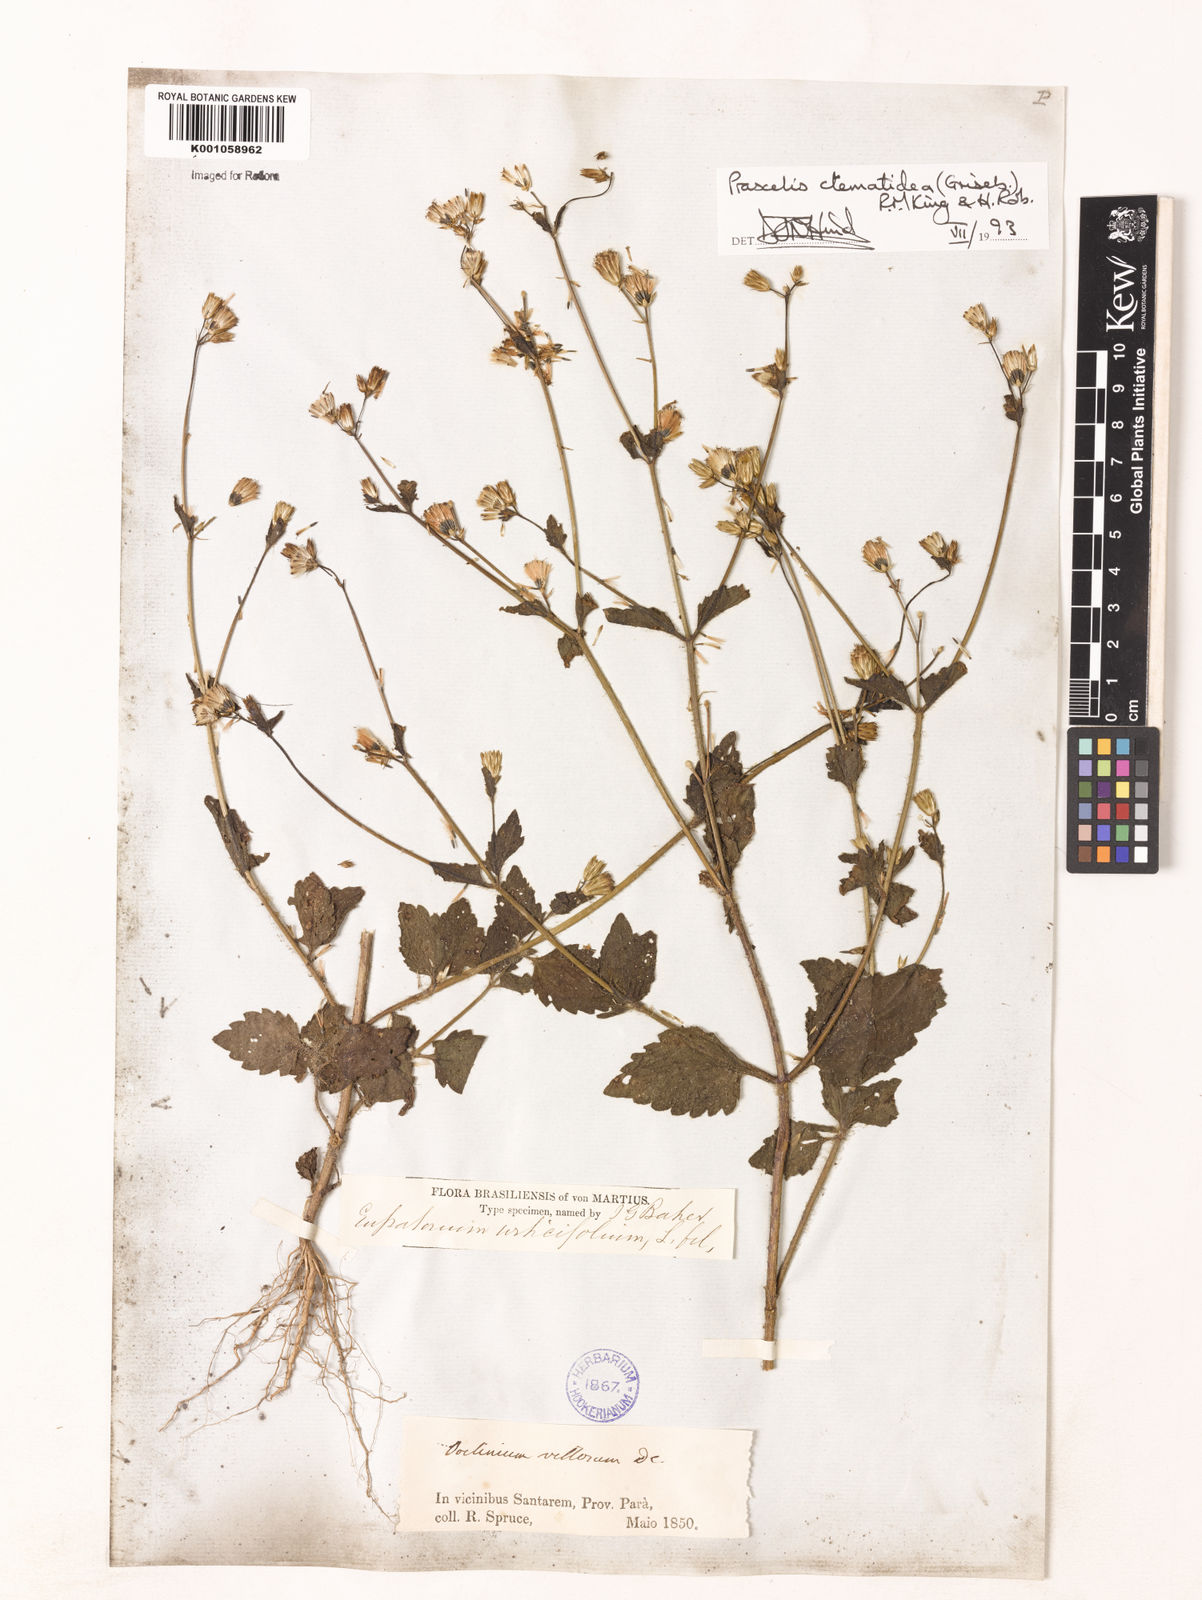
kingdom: Plantae
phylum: Tracheophyta
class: Magnoliopsida
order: Asterales
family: Asteraceae
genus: Praxelis
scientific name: Praxelis diffusa
